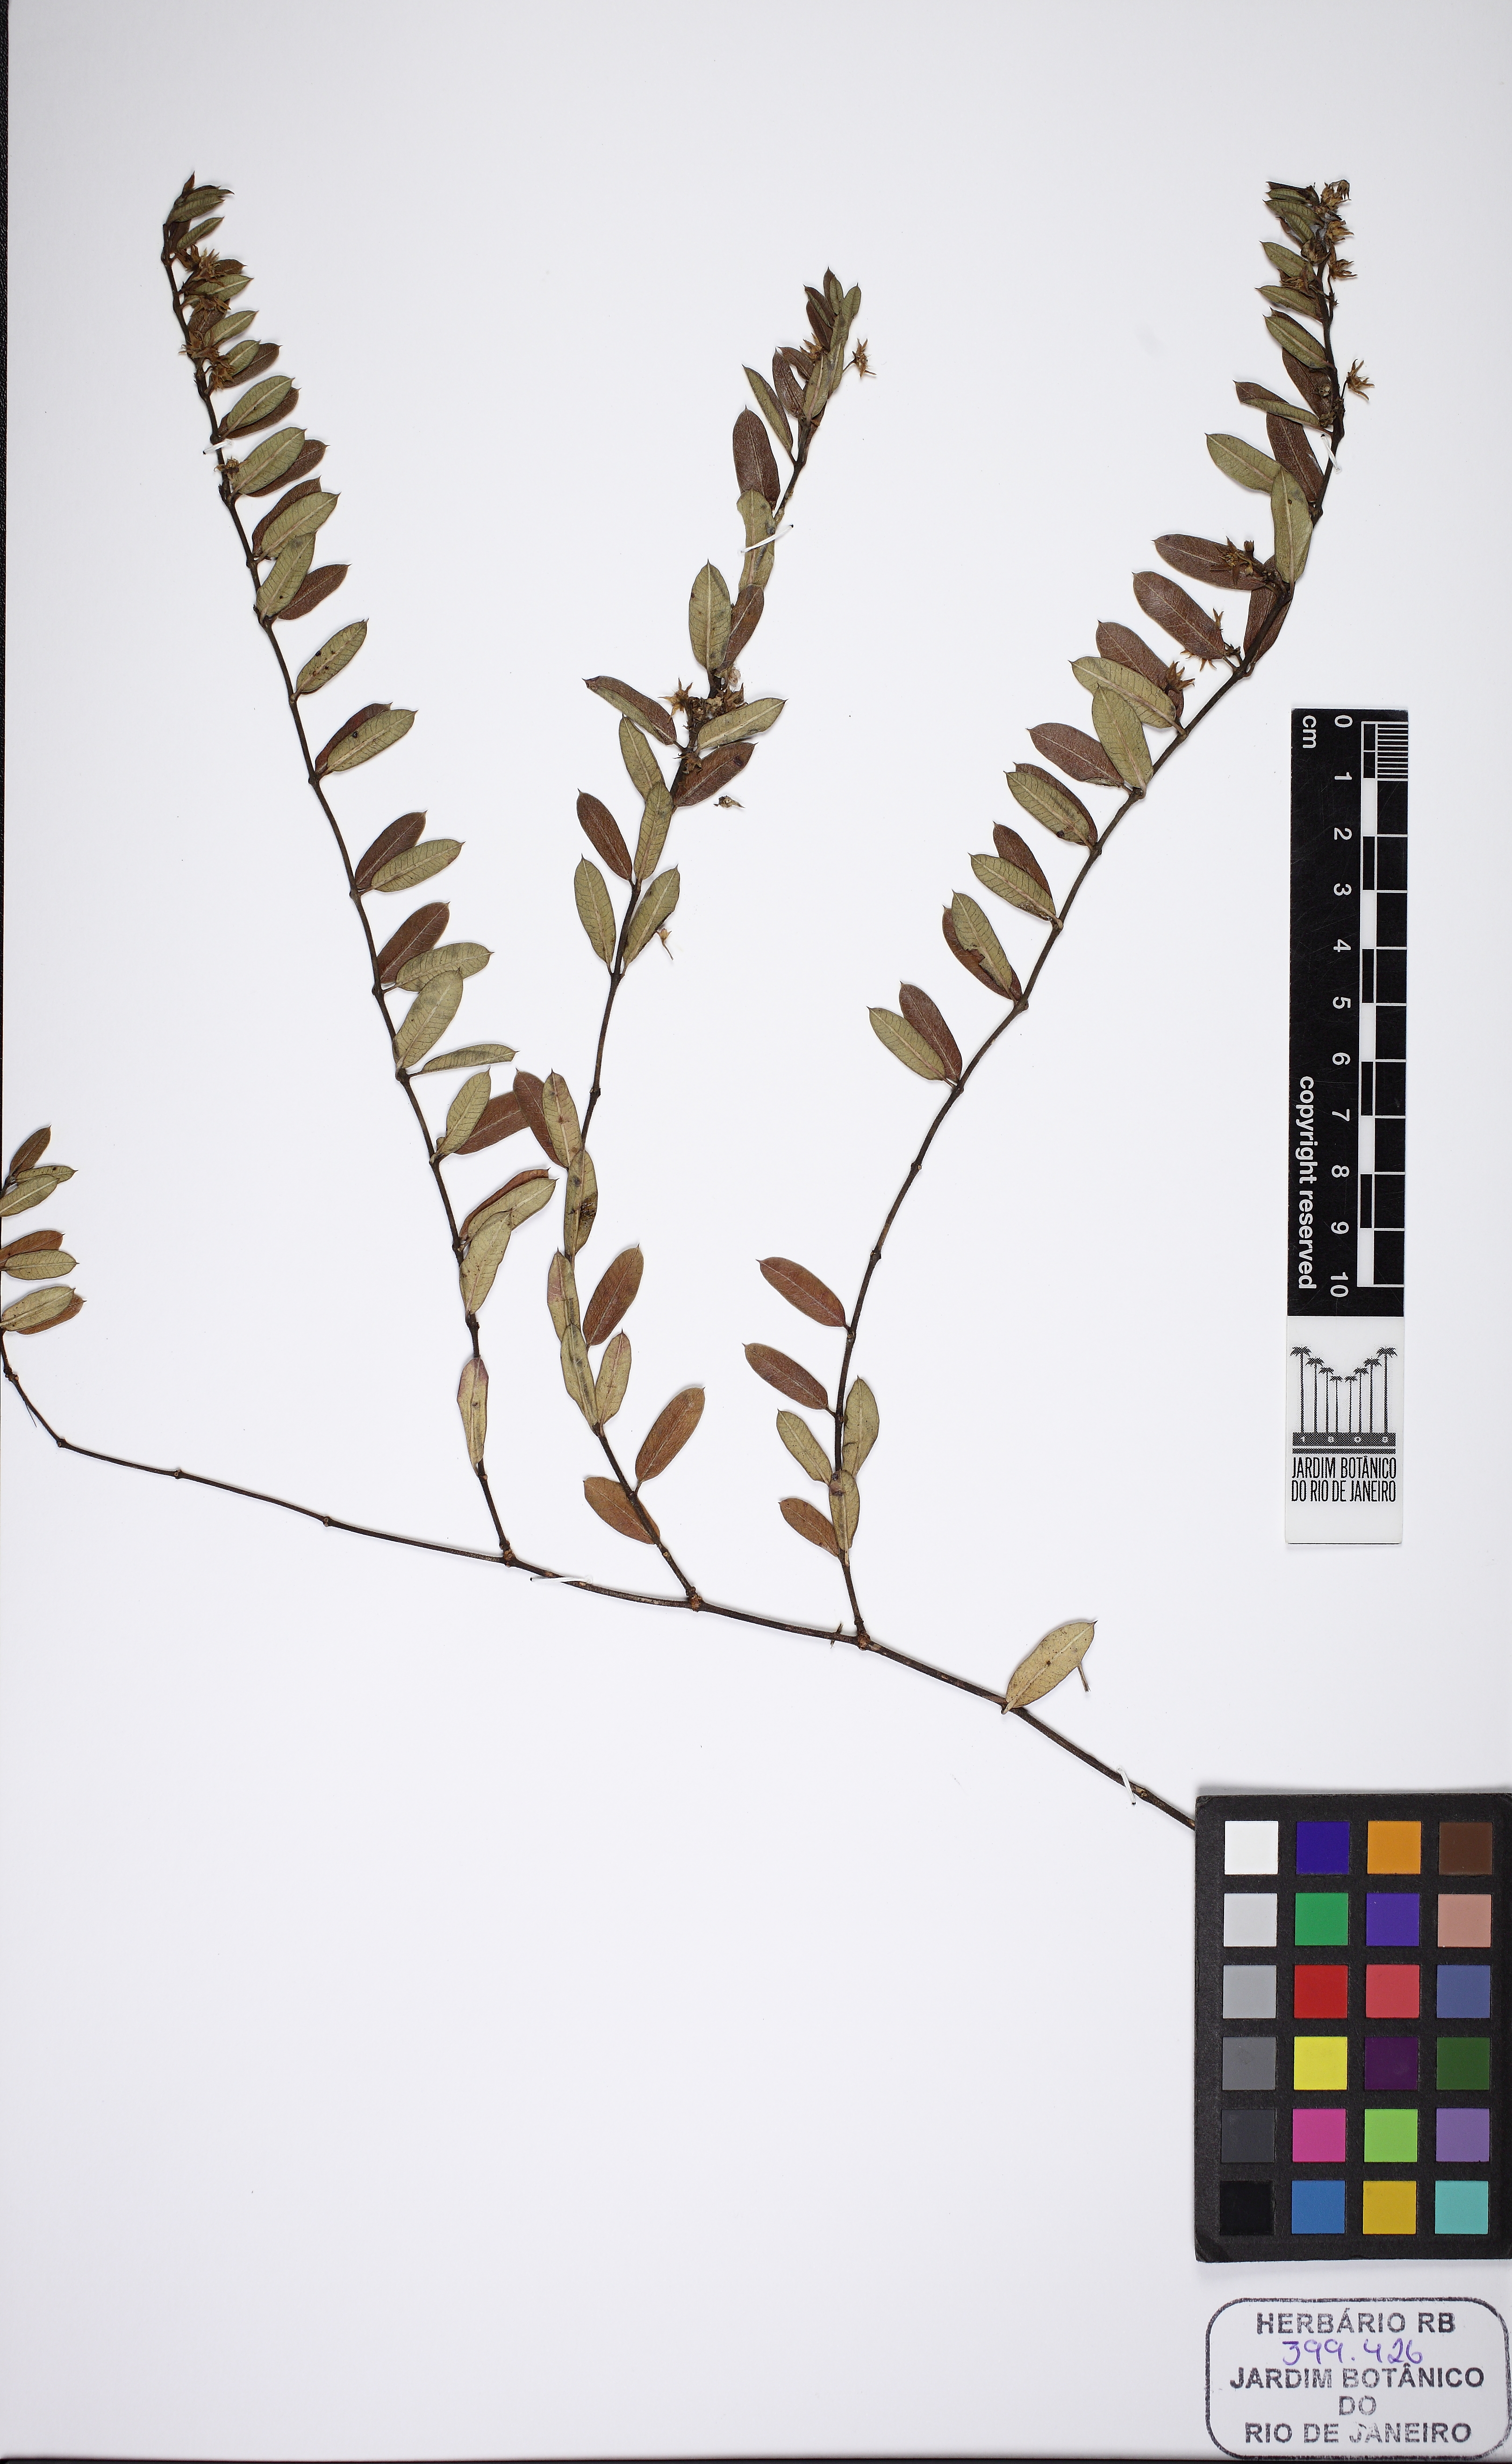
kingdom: Plantae
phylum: Tracheophyta
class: Magnoliopsida
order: Gentianales
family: Apocynaceae
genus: Ditassa
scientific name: Ditassa linearis
